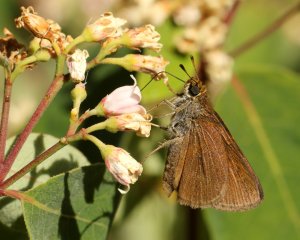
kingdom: Animalia
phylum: Arthropoda
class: Insecta
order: Lepidoptera
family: Hesperiidae
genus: Euphyes
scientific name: Euphyes vestris
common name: Dun Skipper
